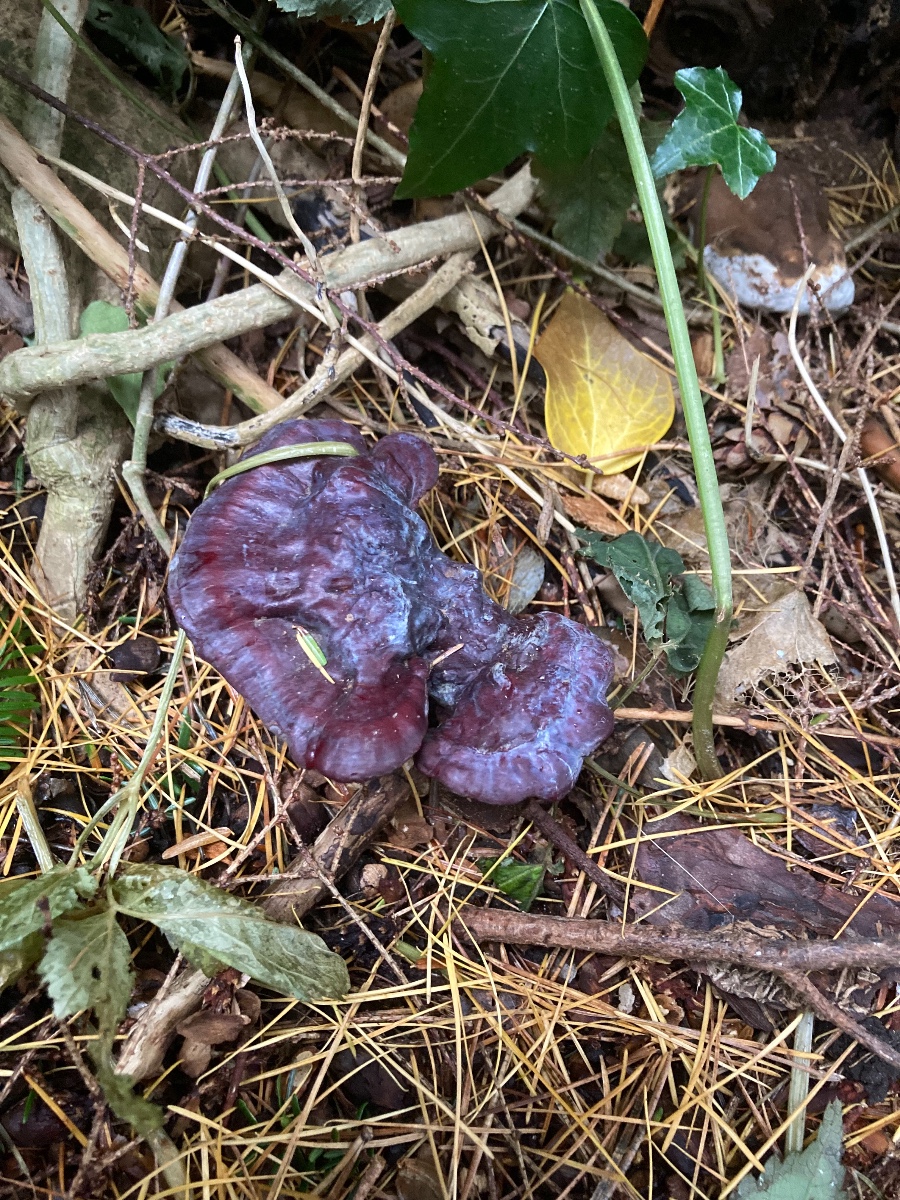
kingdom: Fungi
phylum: Basidiomycota
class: Agaricomycetes
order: Polyporales
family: Polyporaceae
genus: Ganoderma
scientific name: Ganoderma lucidum
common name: skinnende lakporesvamp
